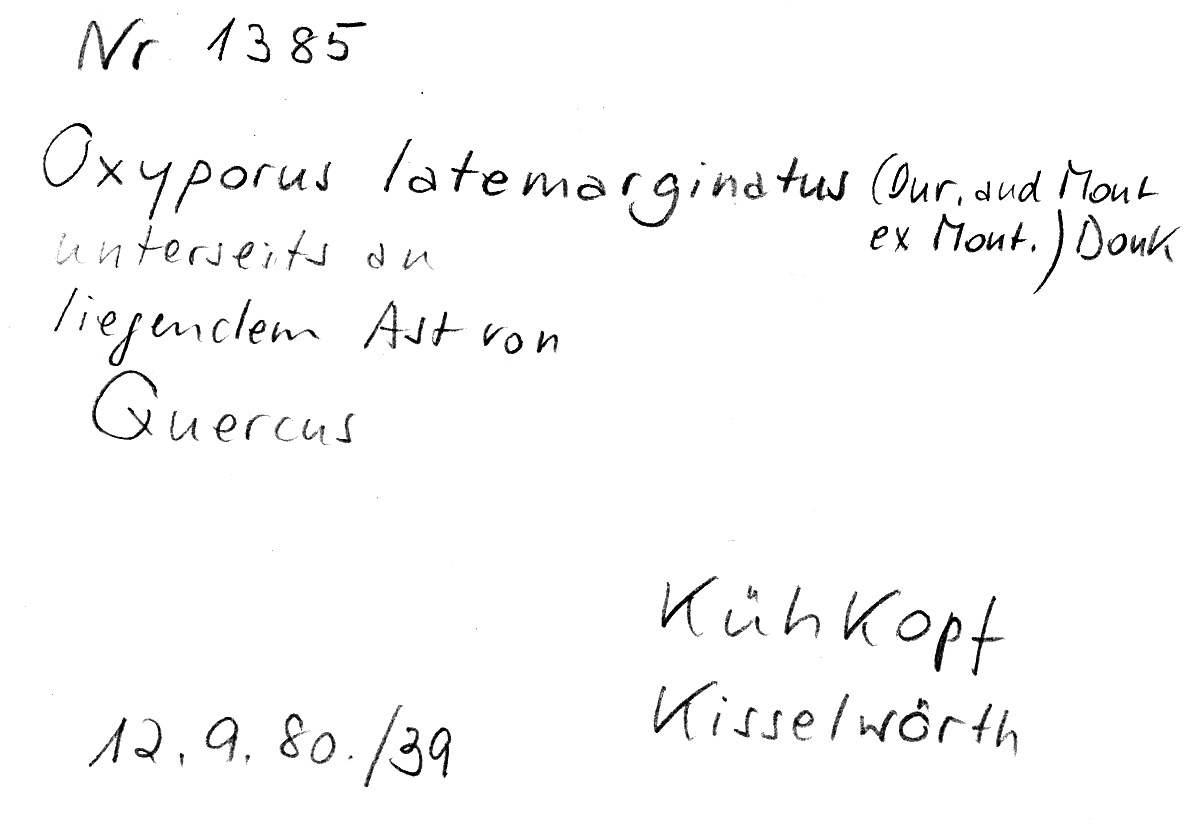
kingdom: Fungi
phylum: Basidiomycota
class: Agaricomycetes
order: Polyporales
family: Irpicaceae
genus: Irpex
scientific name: Irpex latemarginatus
